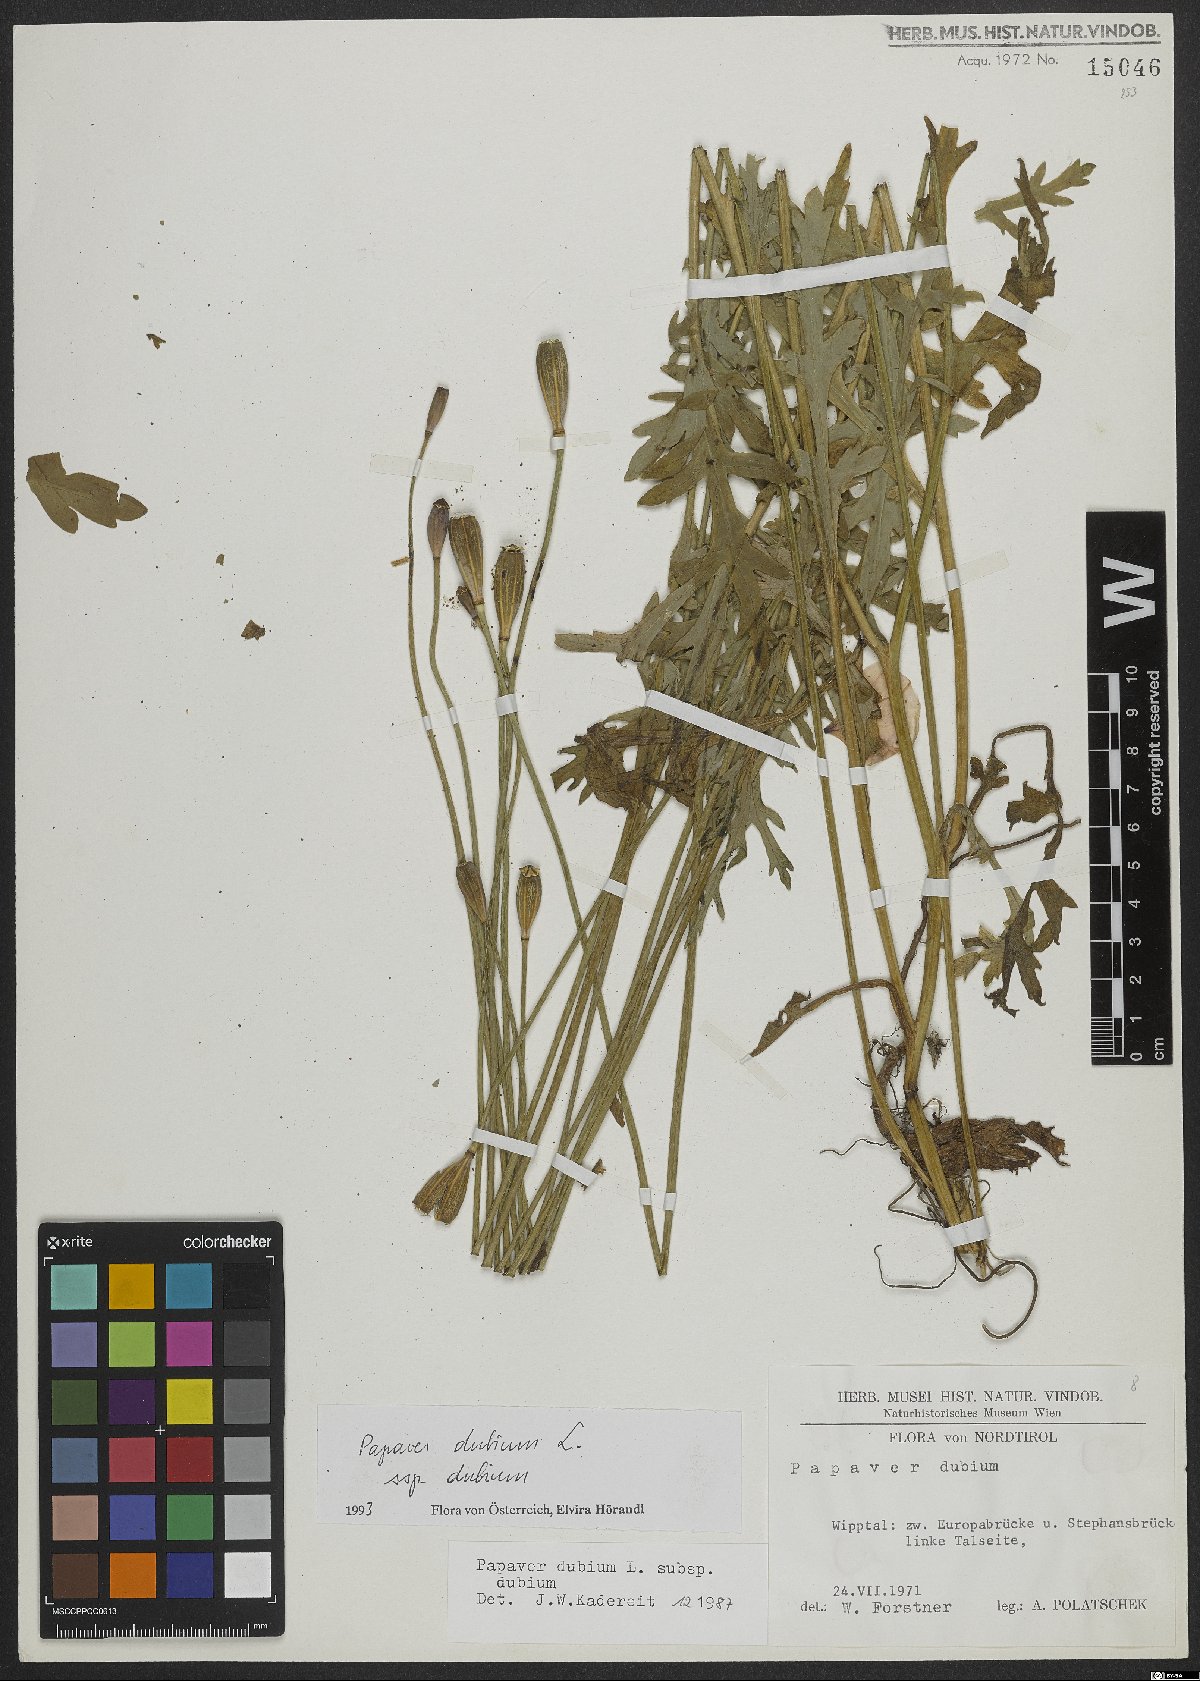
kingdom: Plantae
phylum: Tracheophyta
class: Magnoliopsida
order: Ranunculales
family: Papaveraceae
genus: Papaver
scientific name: Papaver dubium
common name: Long-headed poppy
